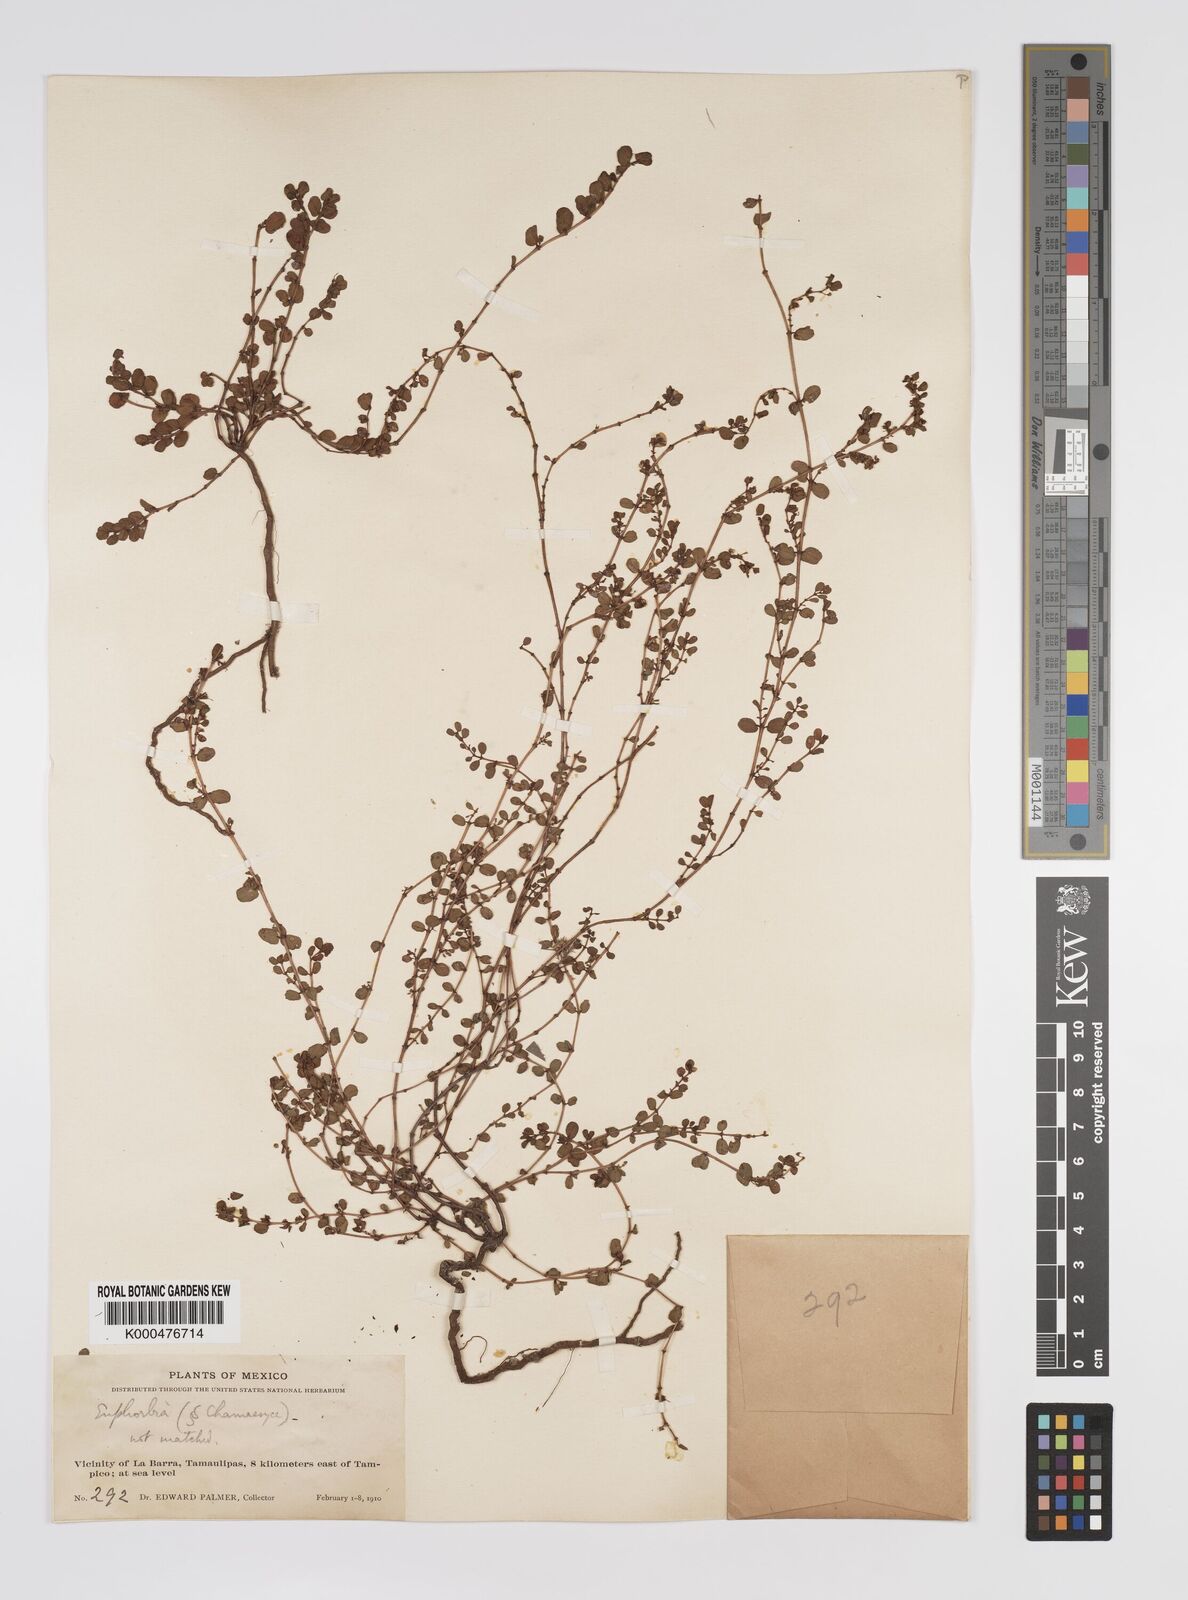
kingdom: Plantae
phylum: Tracheophyta
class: Magnoliopsida
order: Malpighiales
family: Euphorbiaceae
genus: Euphorbia
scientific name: Euphorbia
